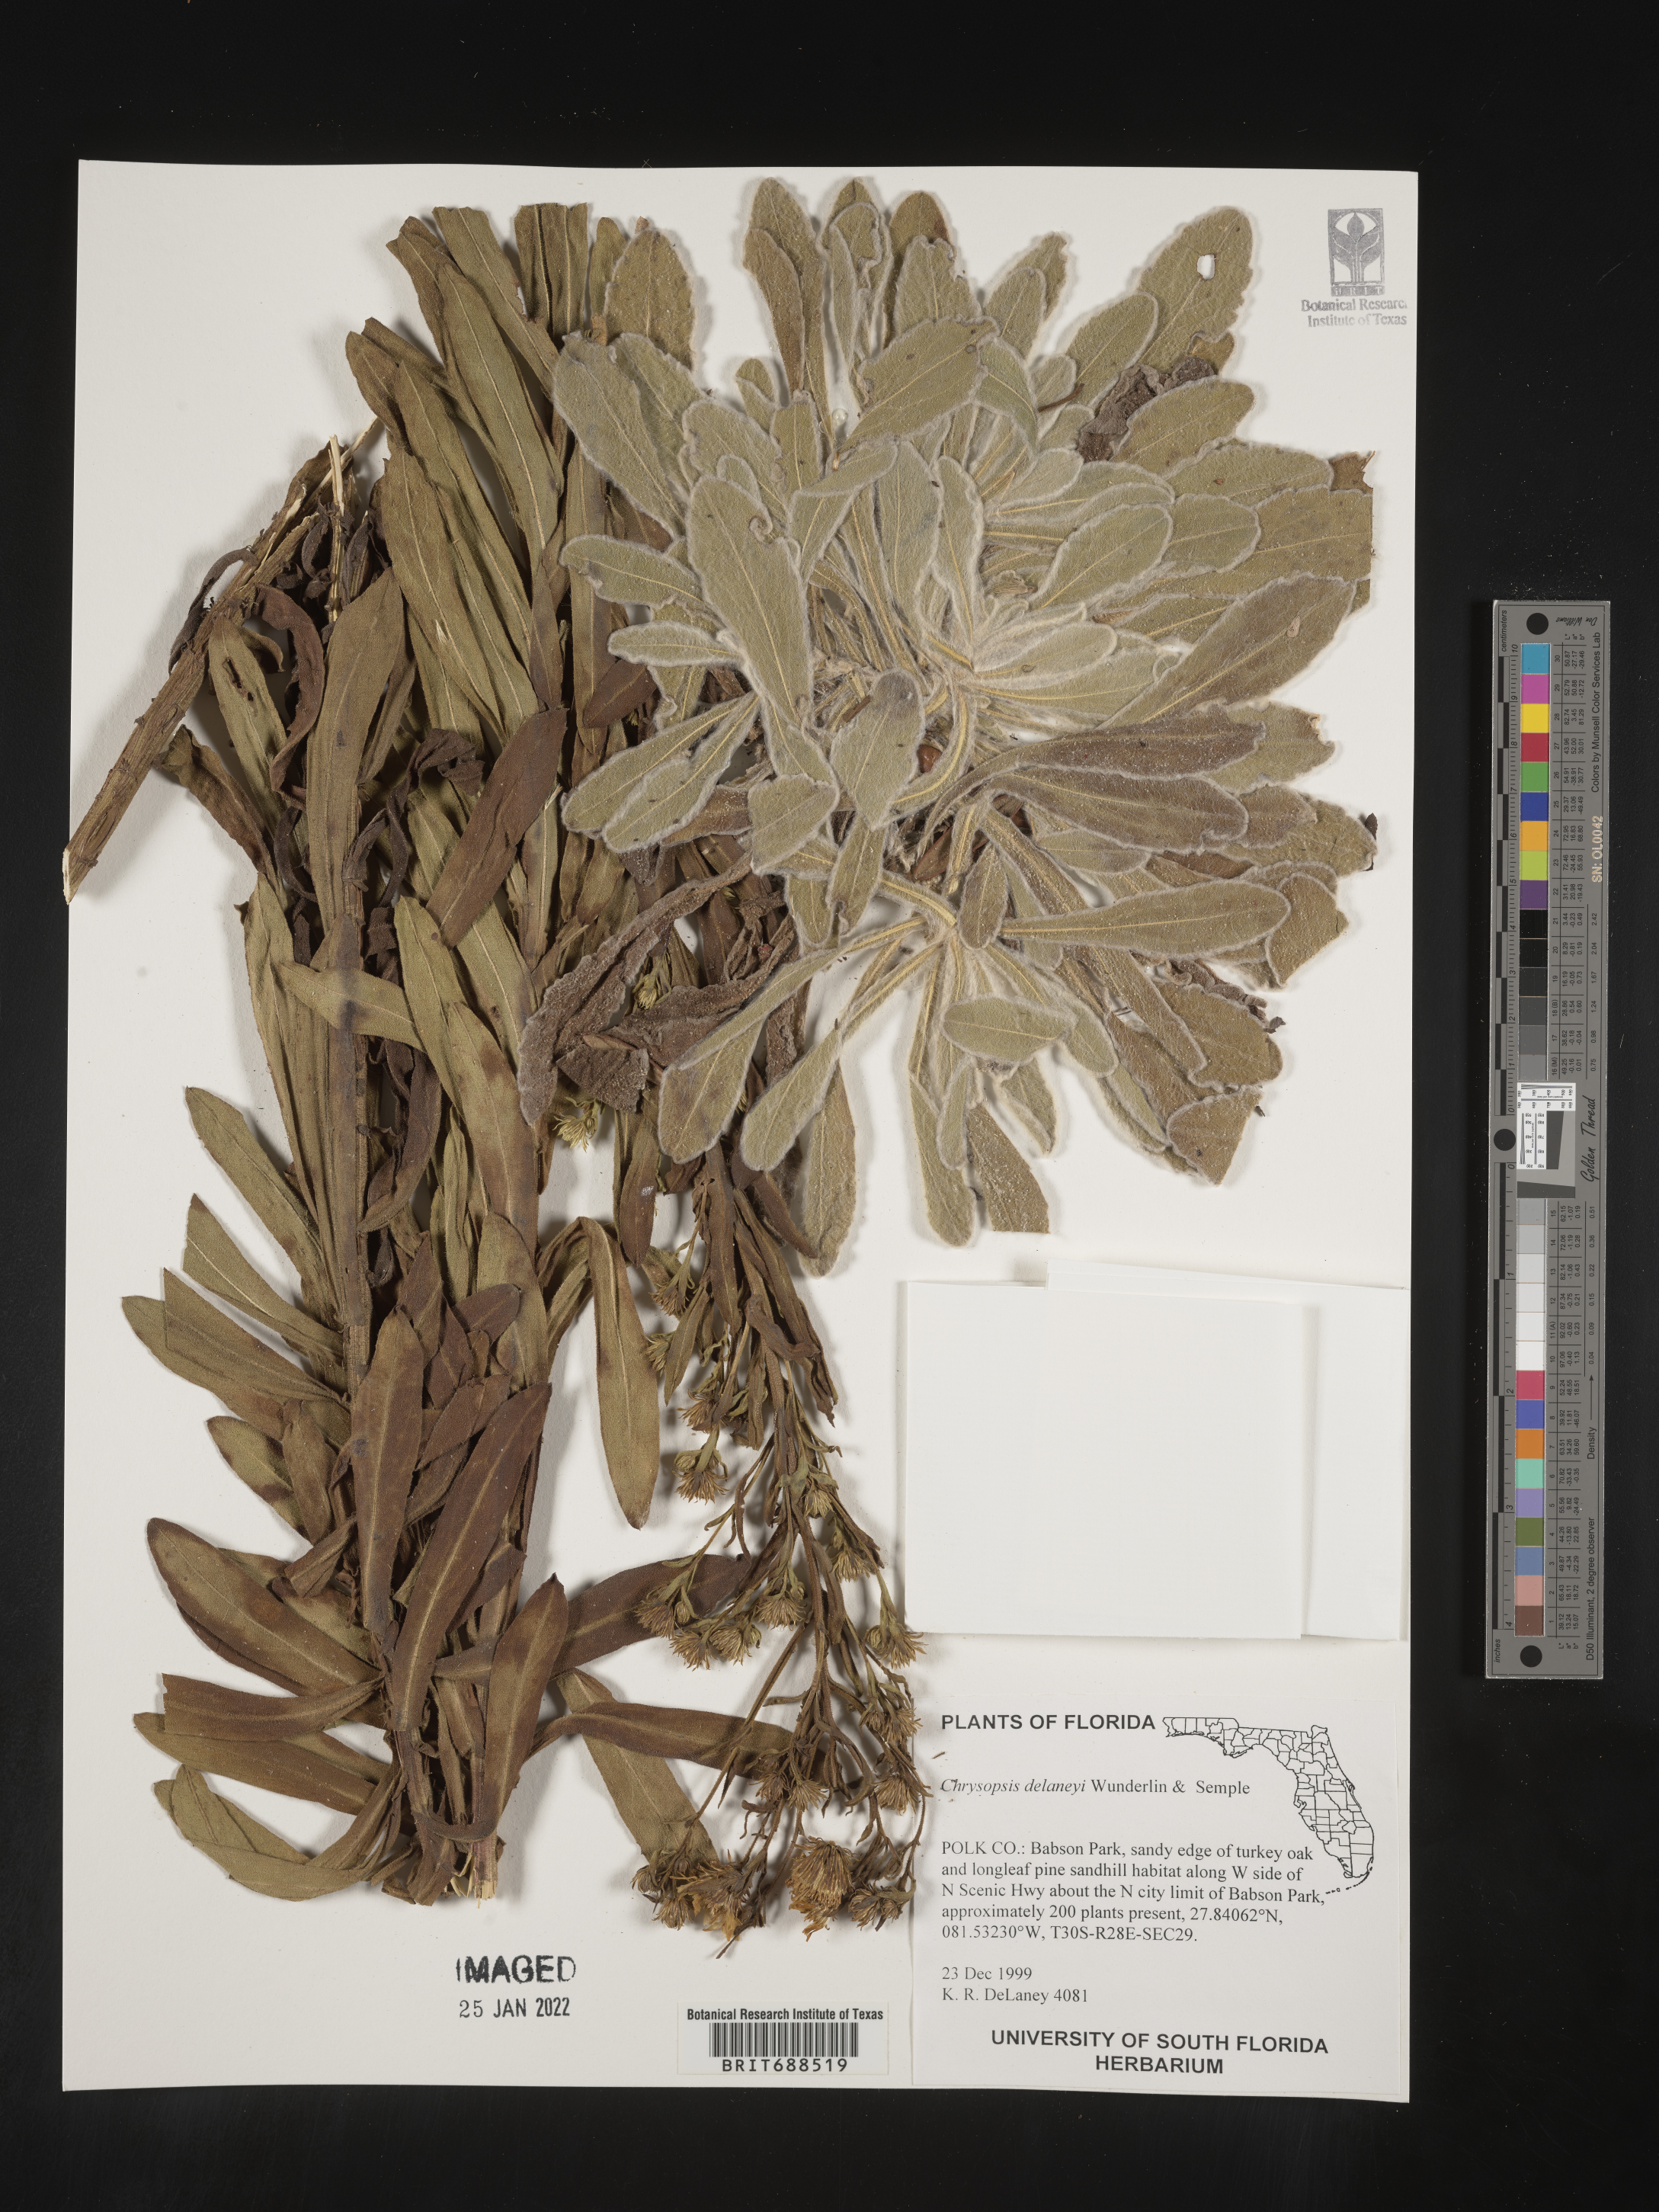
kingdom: Plantae
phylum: Tracheophyta
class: Magnoliopsida
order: Asterales
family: Asteraceae
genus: Chrysopsis
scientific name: Chrysopsis delaneyi
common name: Delaney's goldenaster
